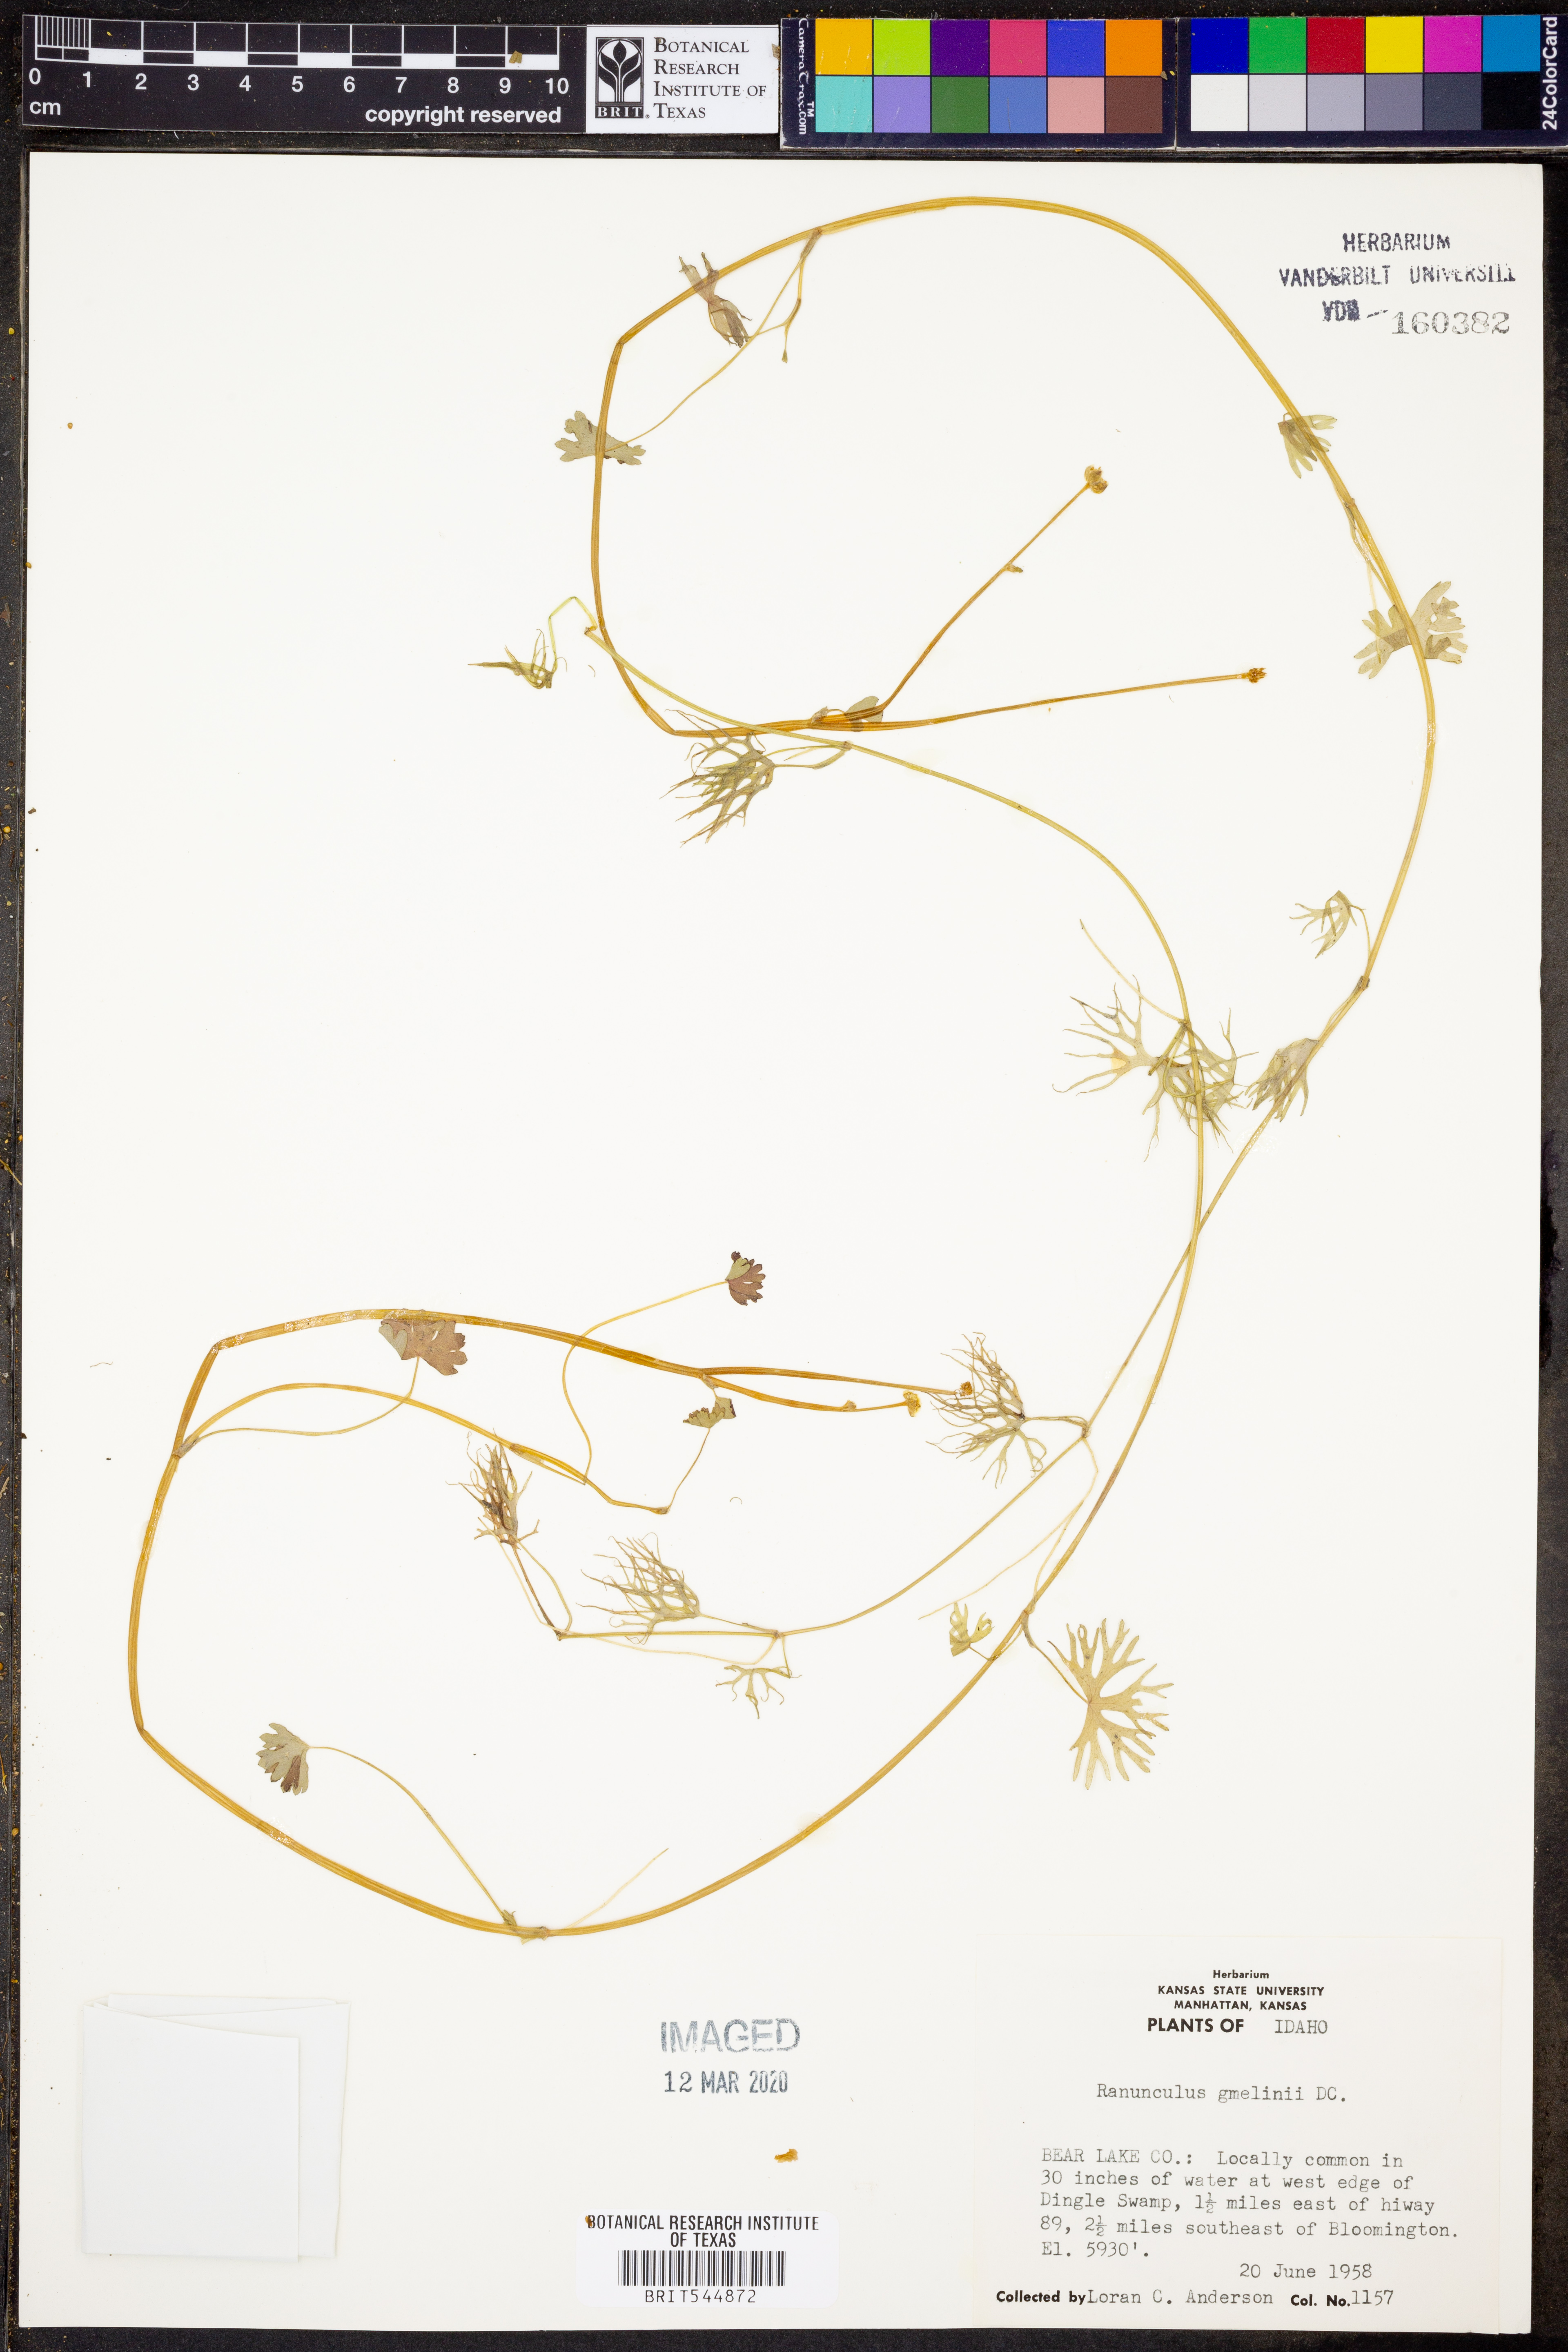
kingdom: Plantae
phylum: Tracheophyta
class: Magnoliopsida
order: Ranunculales
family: Ranunculaceae
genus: Ranunculus
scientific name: Ranunculus gmelinii
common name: Gmelin's buttercup
